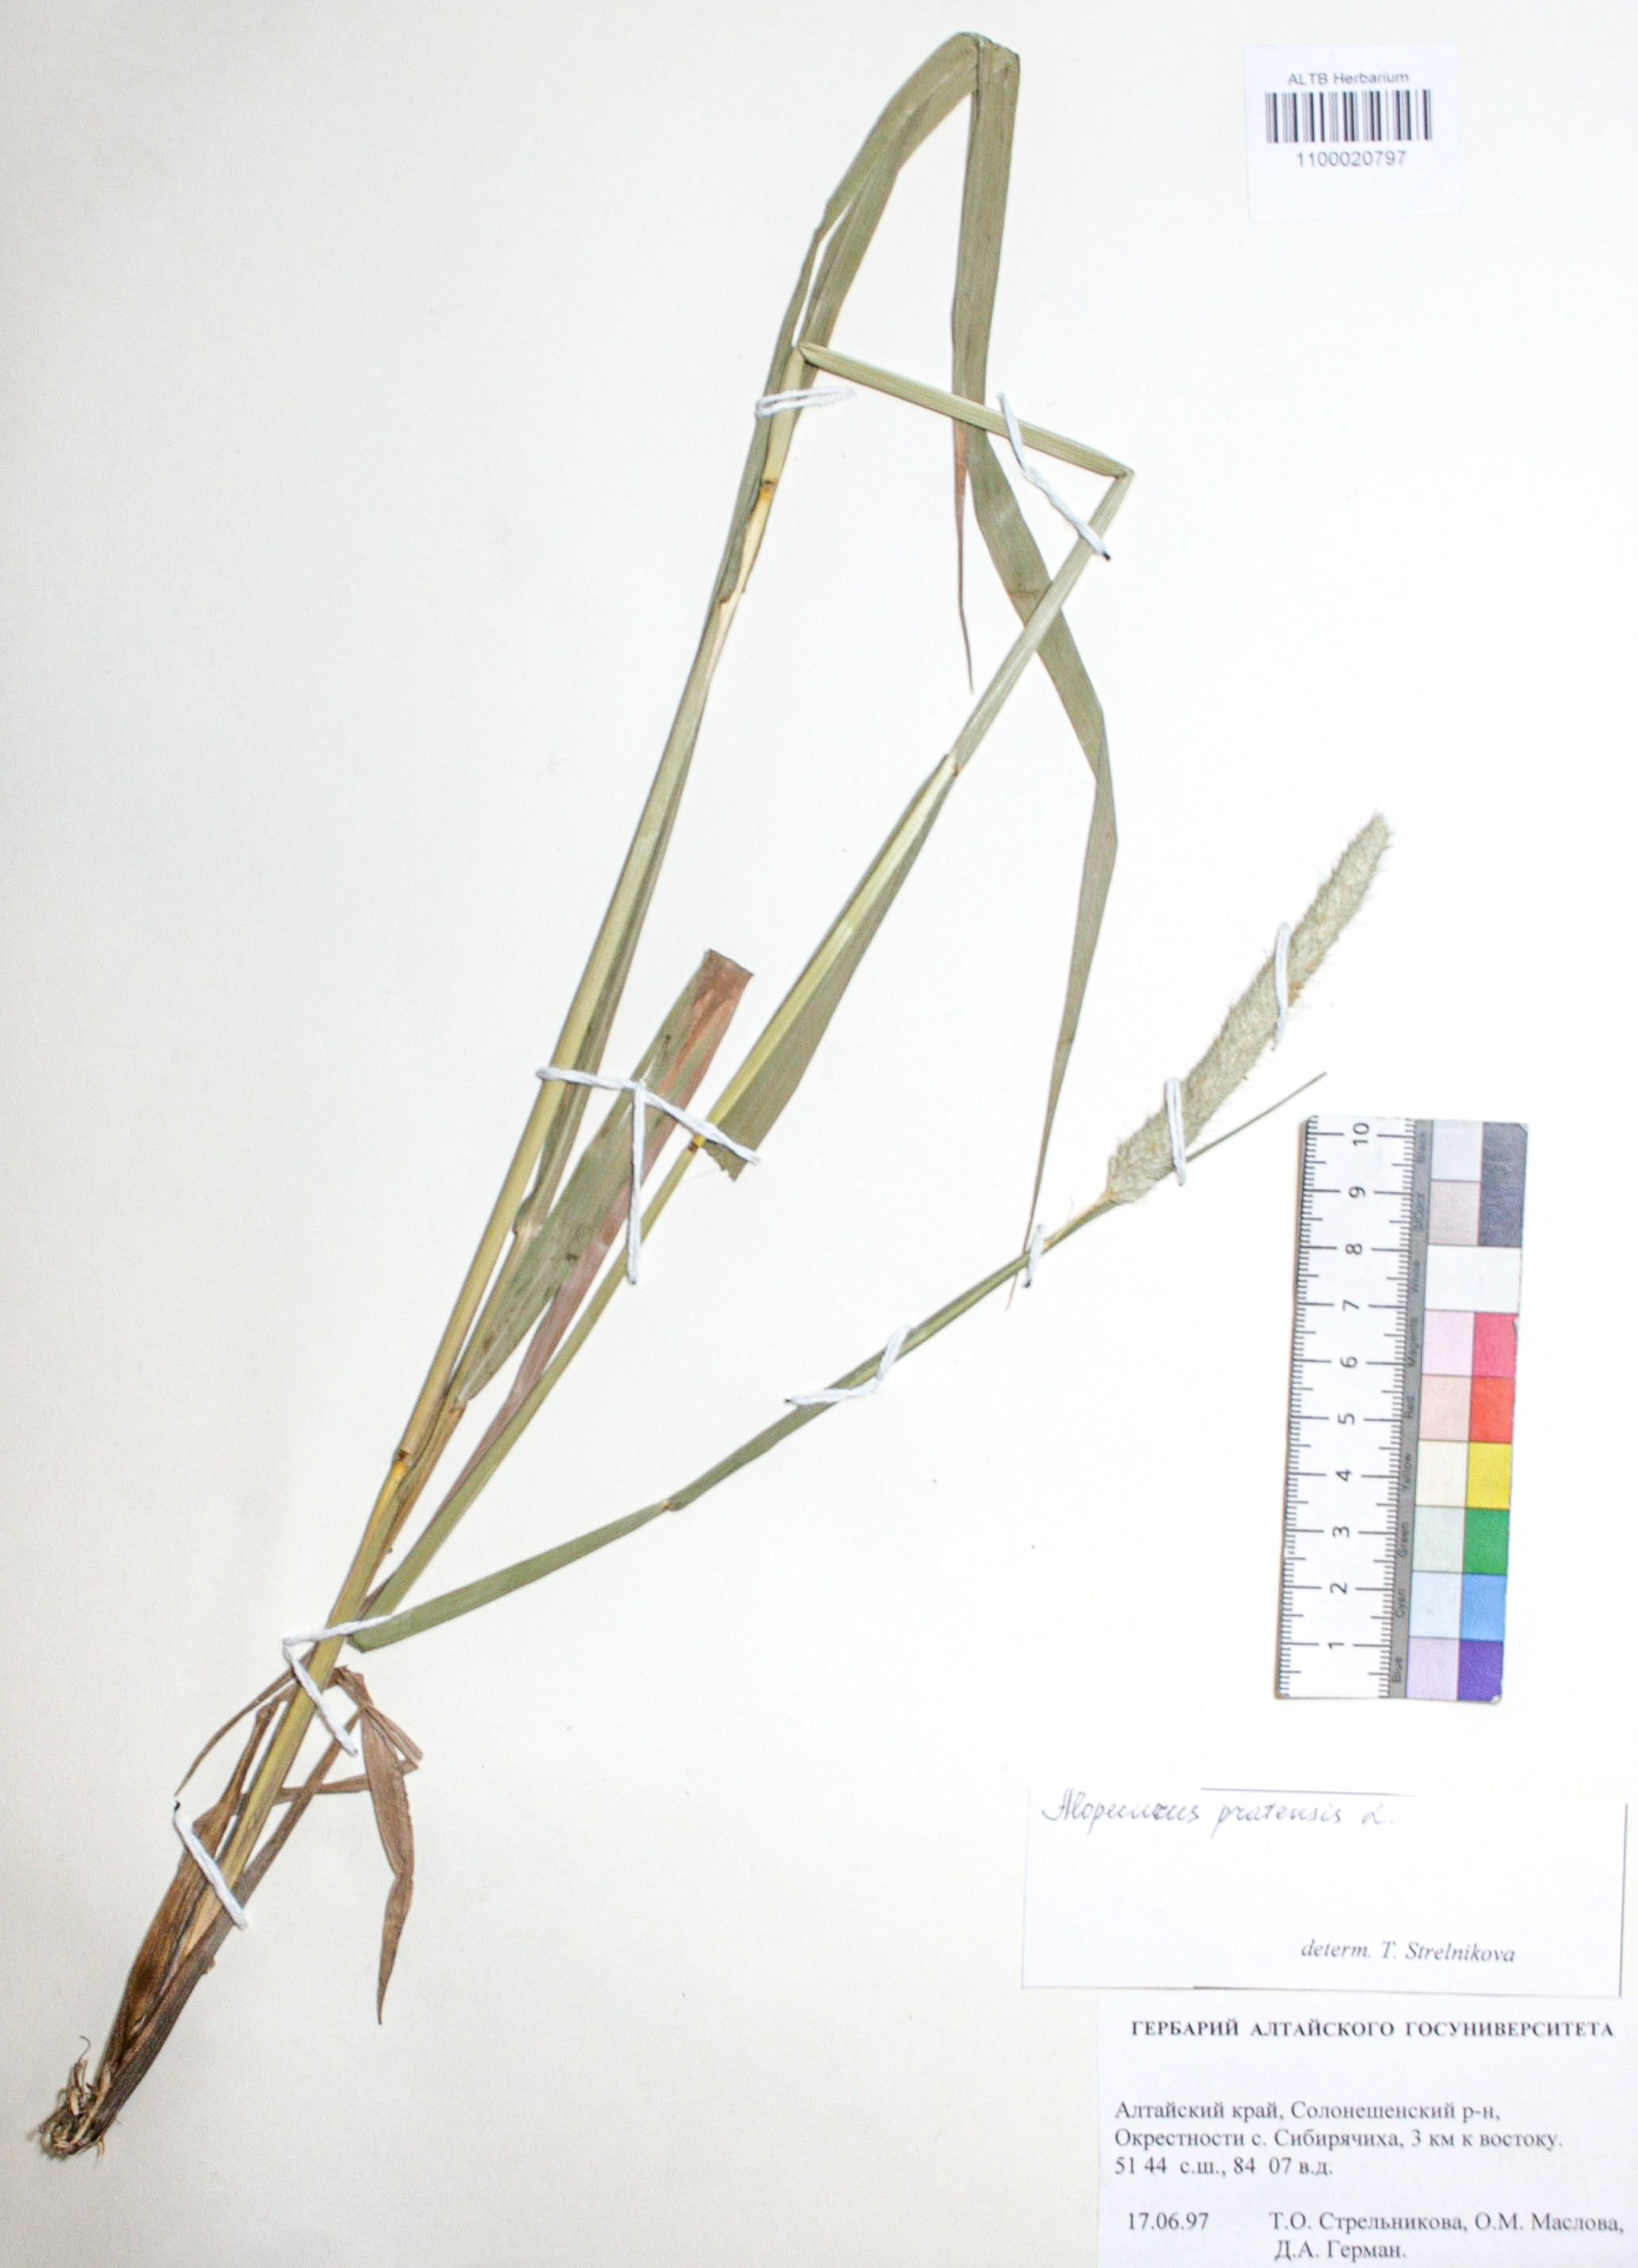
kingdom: Plantae
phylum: Tracheophyta
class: Liliopsida
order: Poales
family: Poaceae
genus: Alopecurus
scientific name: Alopecurus pratensis
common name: Meadow foxtail
